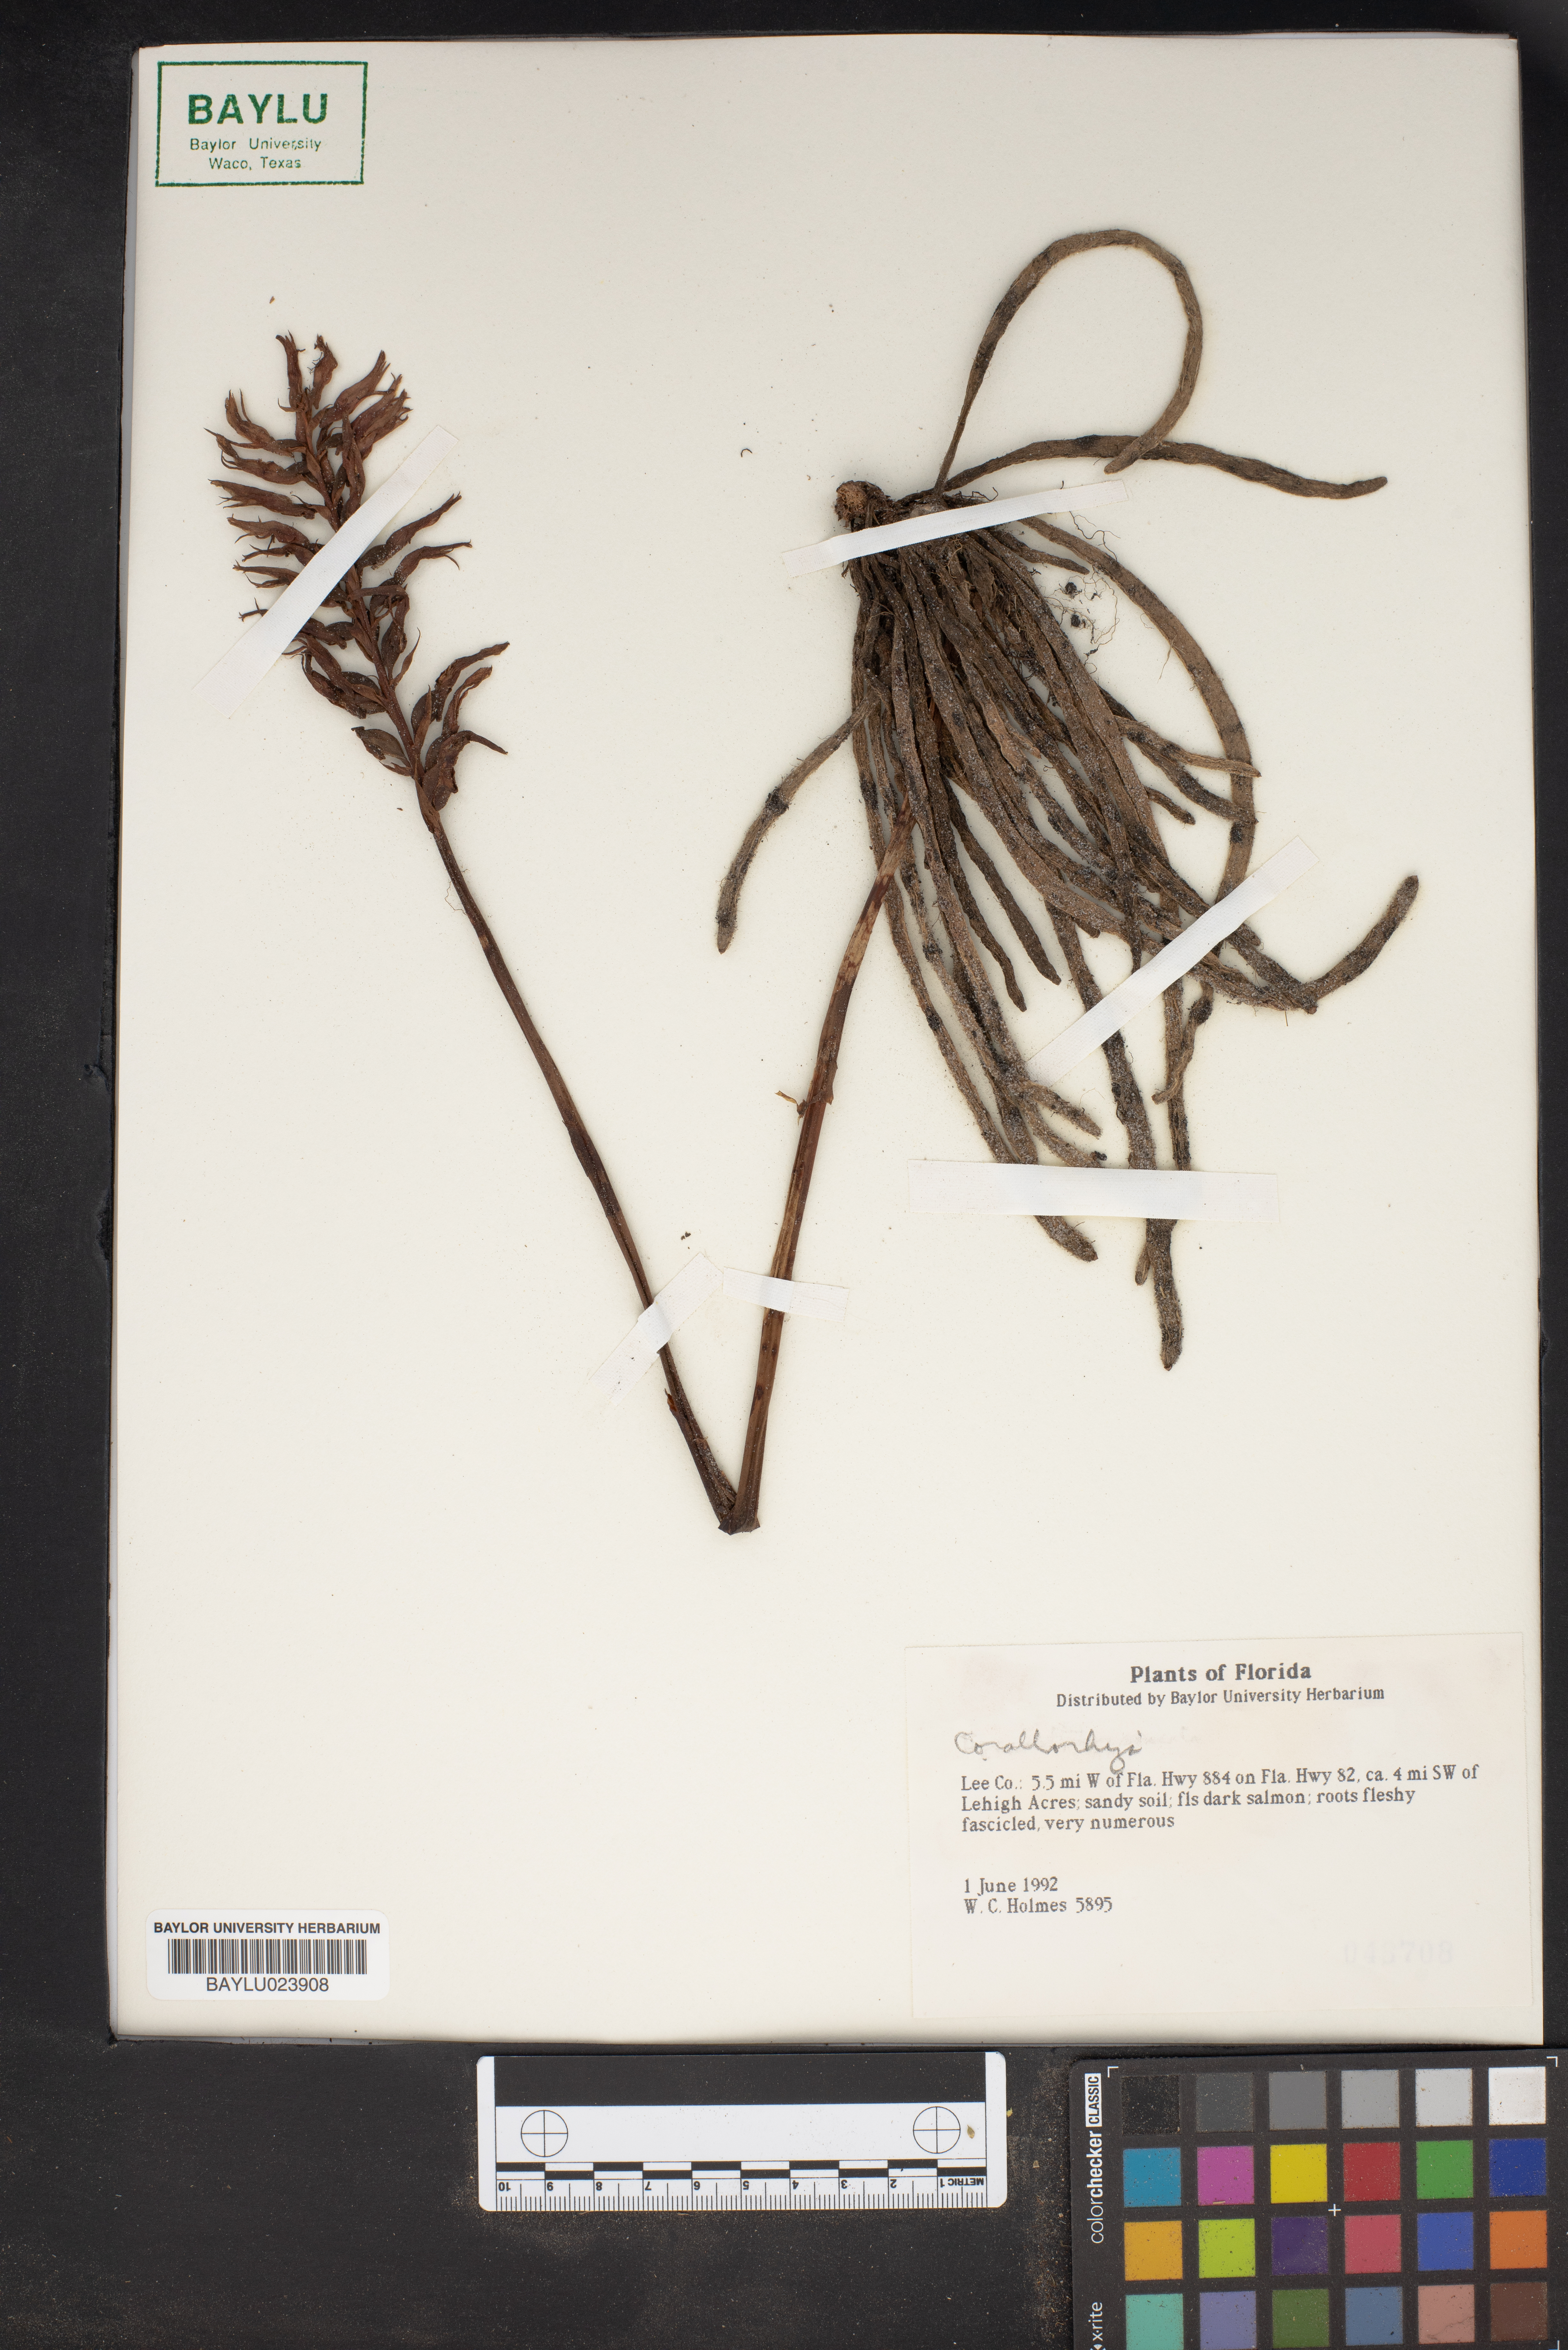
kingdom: Plantae
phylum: Tracheophyta
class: Liliopsida
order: Asparagales
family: Orchidaceae
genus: Corallorhiza
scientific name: Corallorhiza
